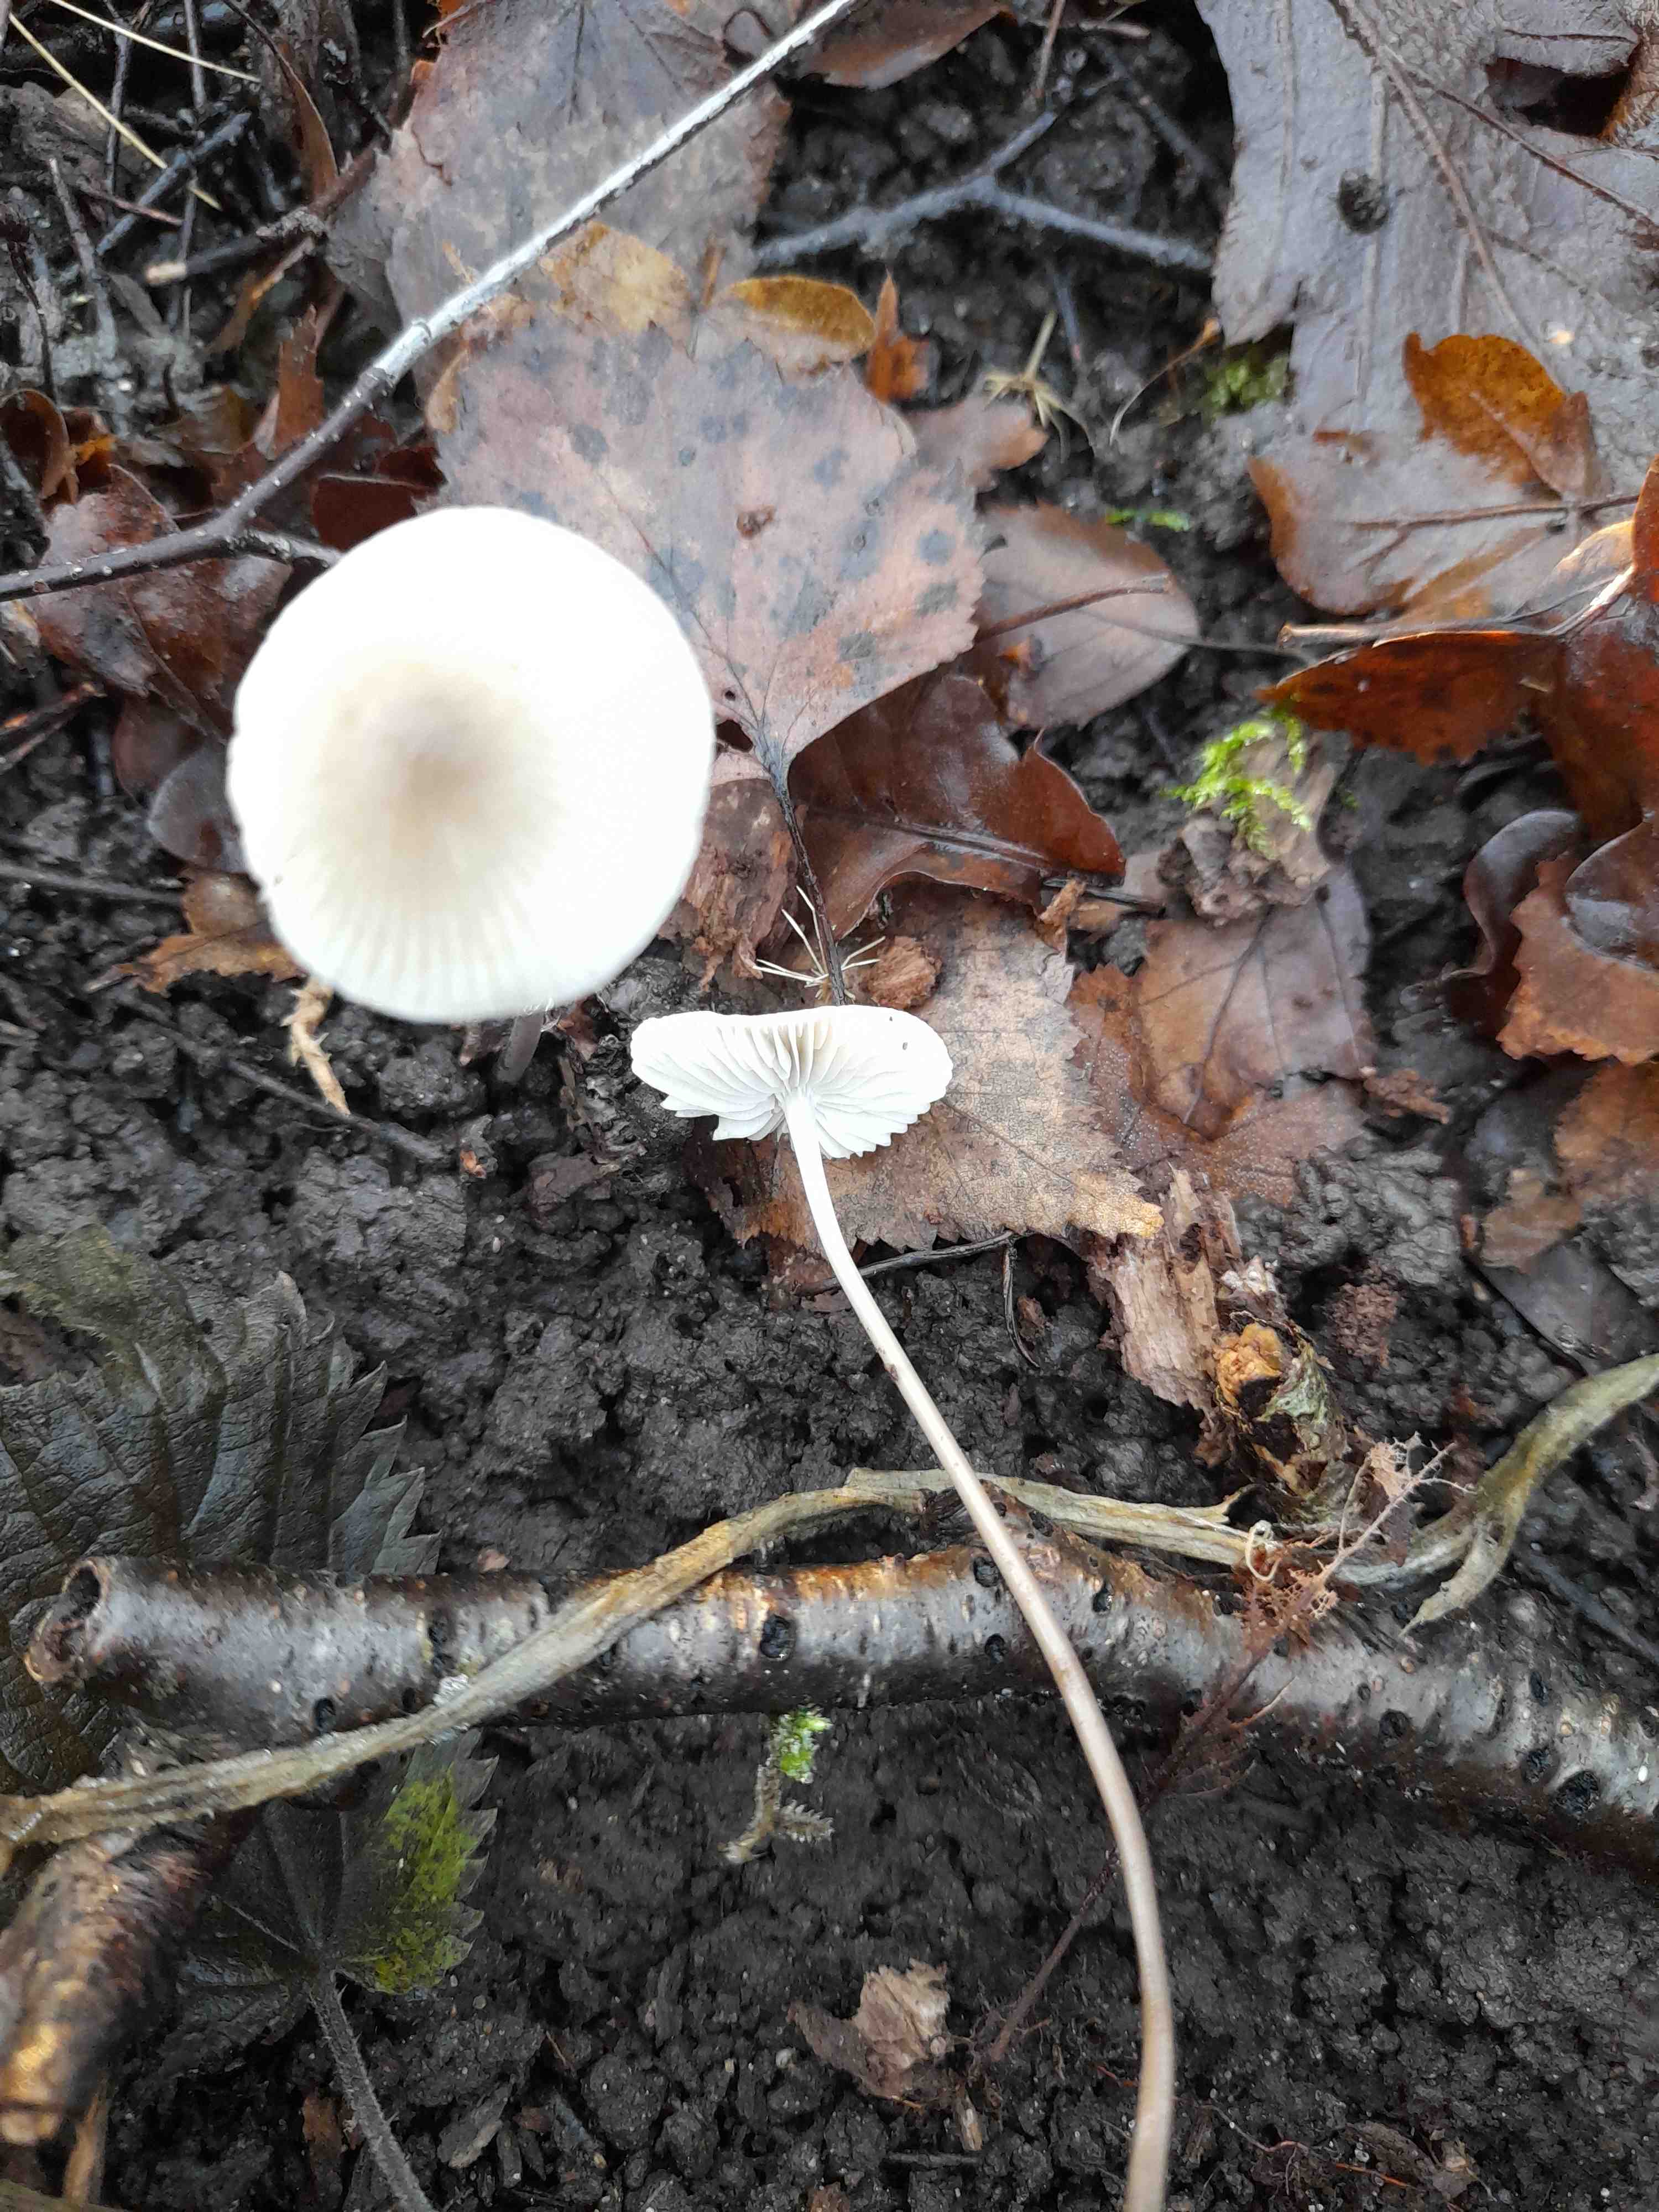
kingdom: Fungi
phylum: Basidiomycota
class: Agaricomycetes
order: Agaricales
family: Mycenaceae
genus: Mycena
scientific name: Mycena vitilis
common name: blankstokket huesvamp
